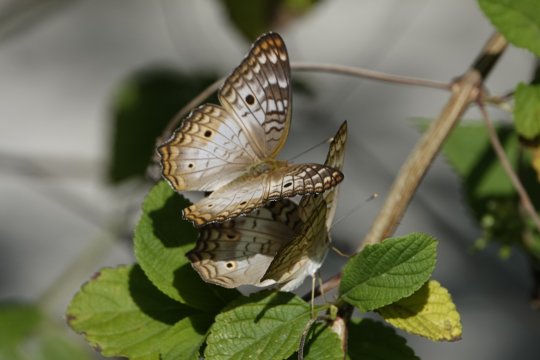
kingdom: Animalia
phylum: Arthropoda
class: Insecta
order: Lepidoptera
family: Nymphalidae
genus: Anartia
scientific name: Anartia jatrophae
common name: White Peacock
